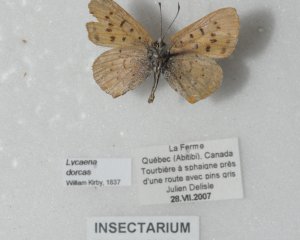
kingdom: Animalia
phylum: Arthropoda
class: Insecta
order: Lepidoptera
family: Lycaenidae
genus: Epidemia
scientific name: Epidemia dorcas
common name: Dorcas Copper
